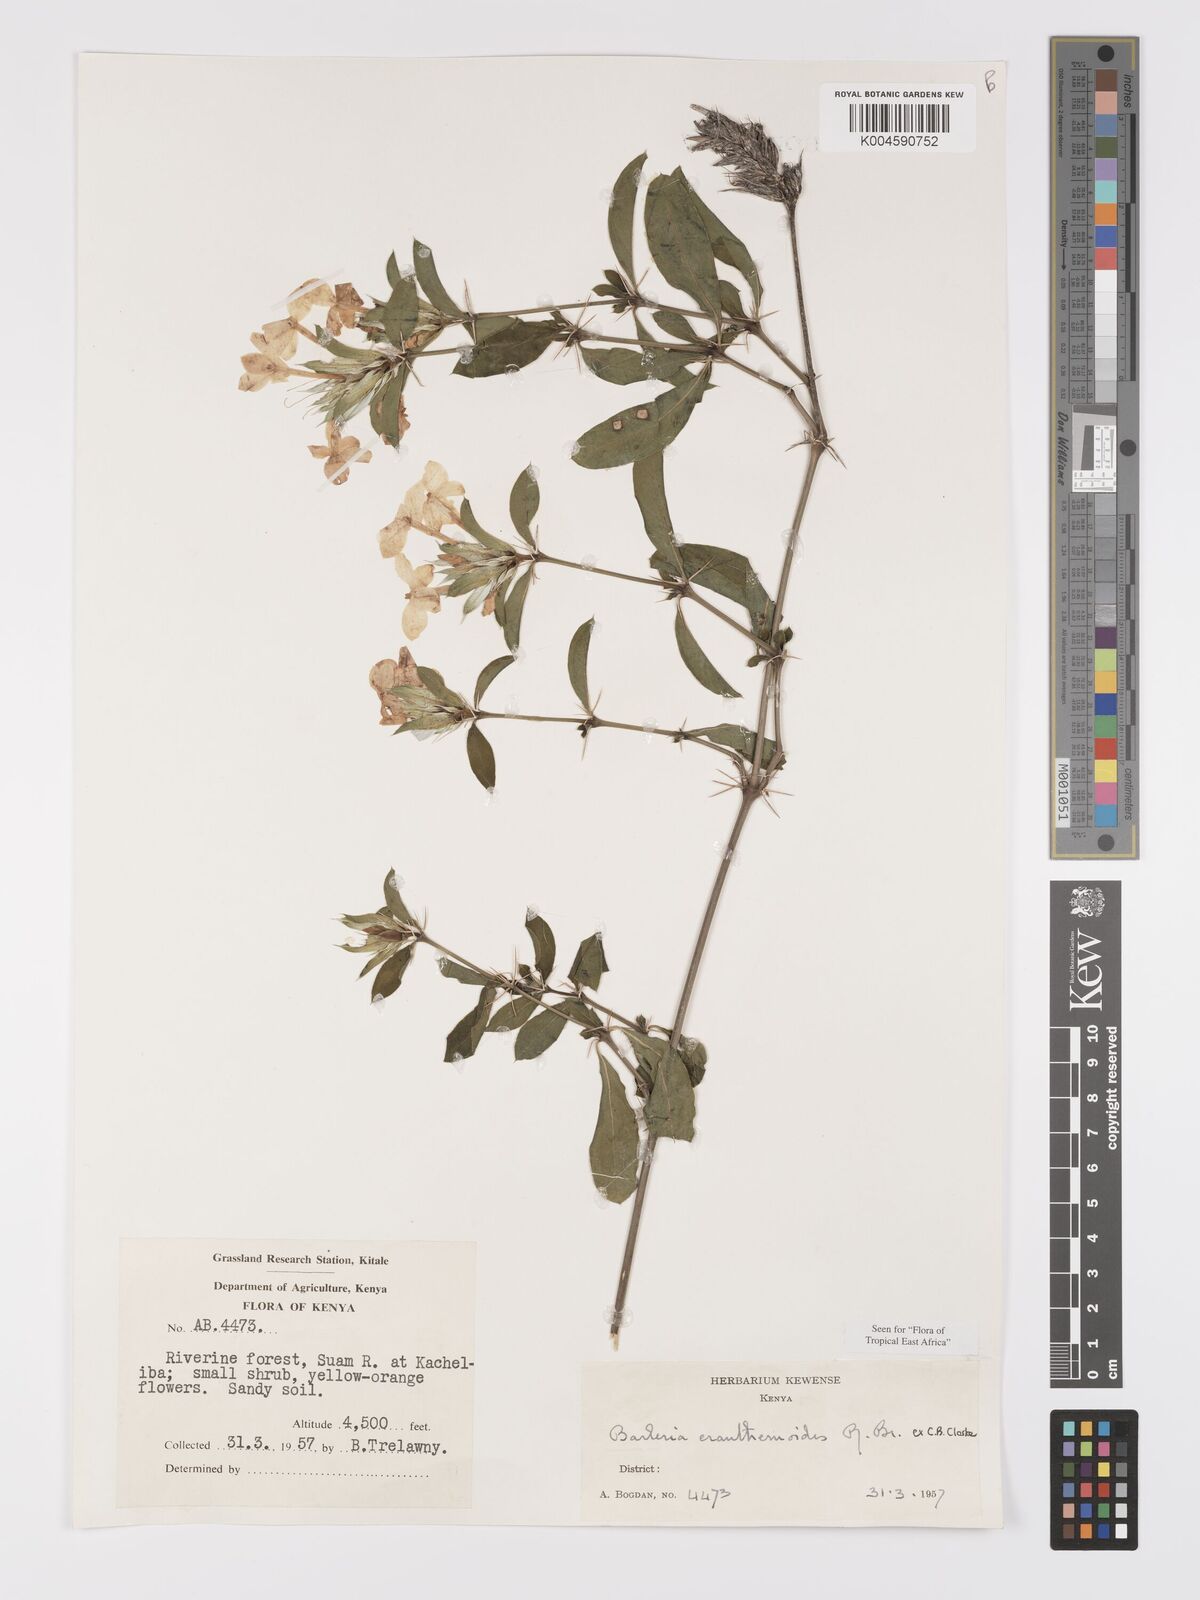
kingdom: Plantae
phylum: Tracheophyta
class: Magnoliopsida
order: Lamiales
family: Acanthaceae
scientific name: Acanthaceae
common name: Acanthaceae
